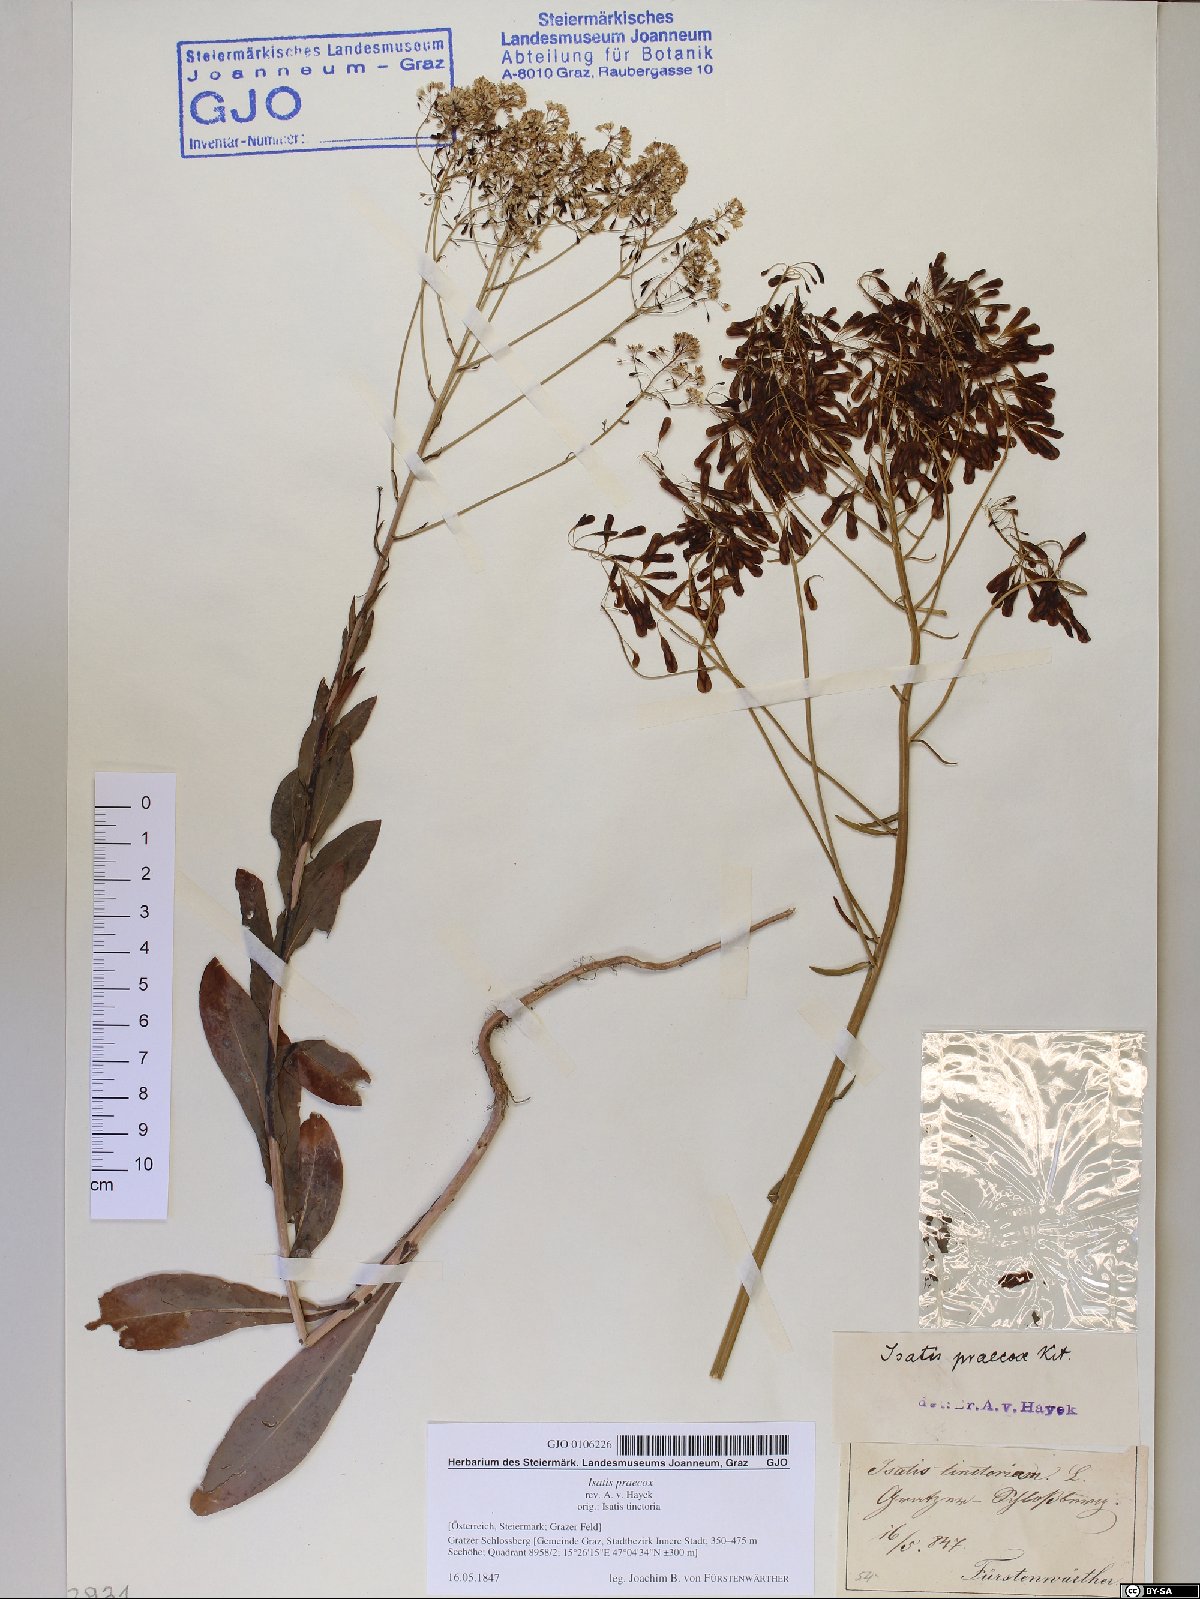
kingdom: Plantae
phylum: Tracheophyta
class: Magnoliopsida
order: Brassicales
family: Brassicaceae
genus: Isatis
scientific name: Isatis tinctoria
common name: Woad
